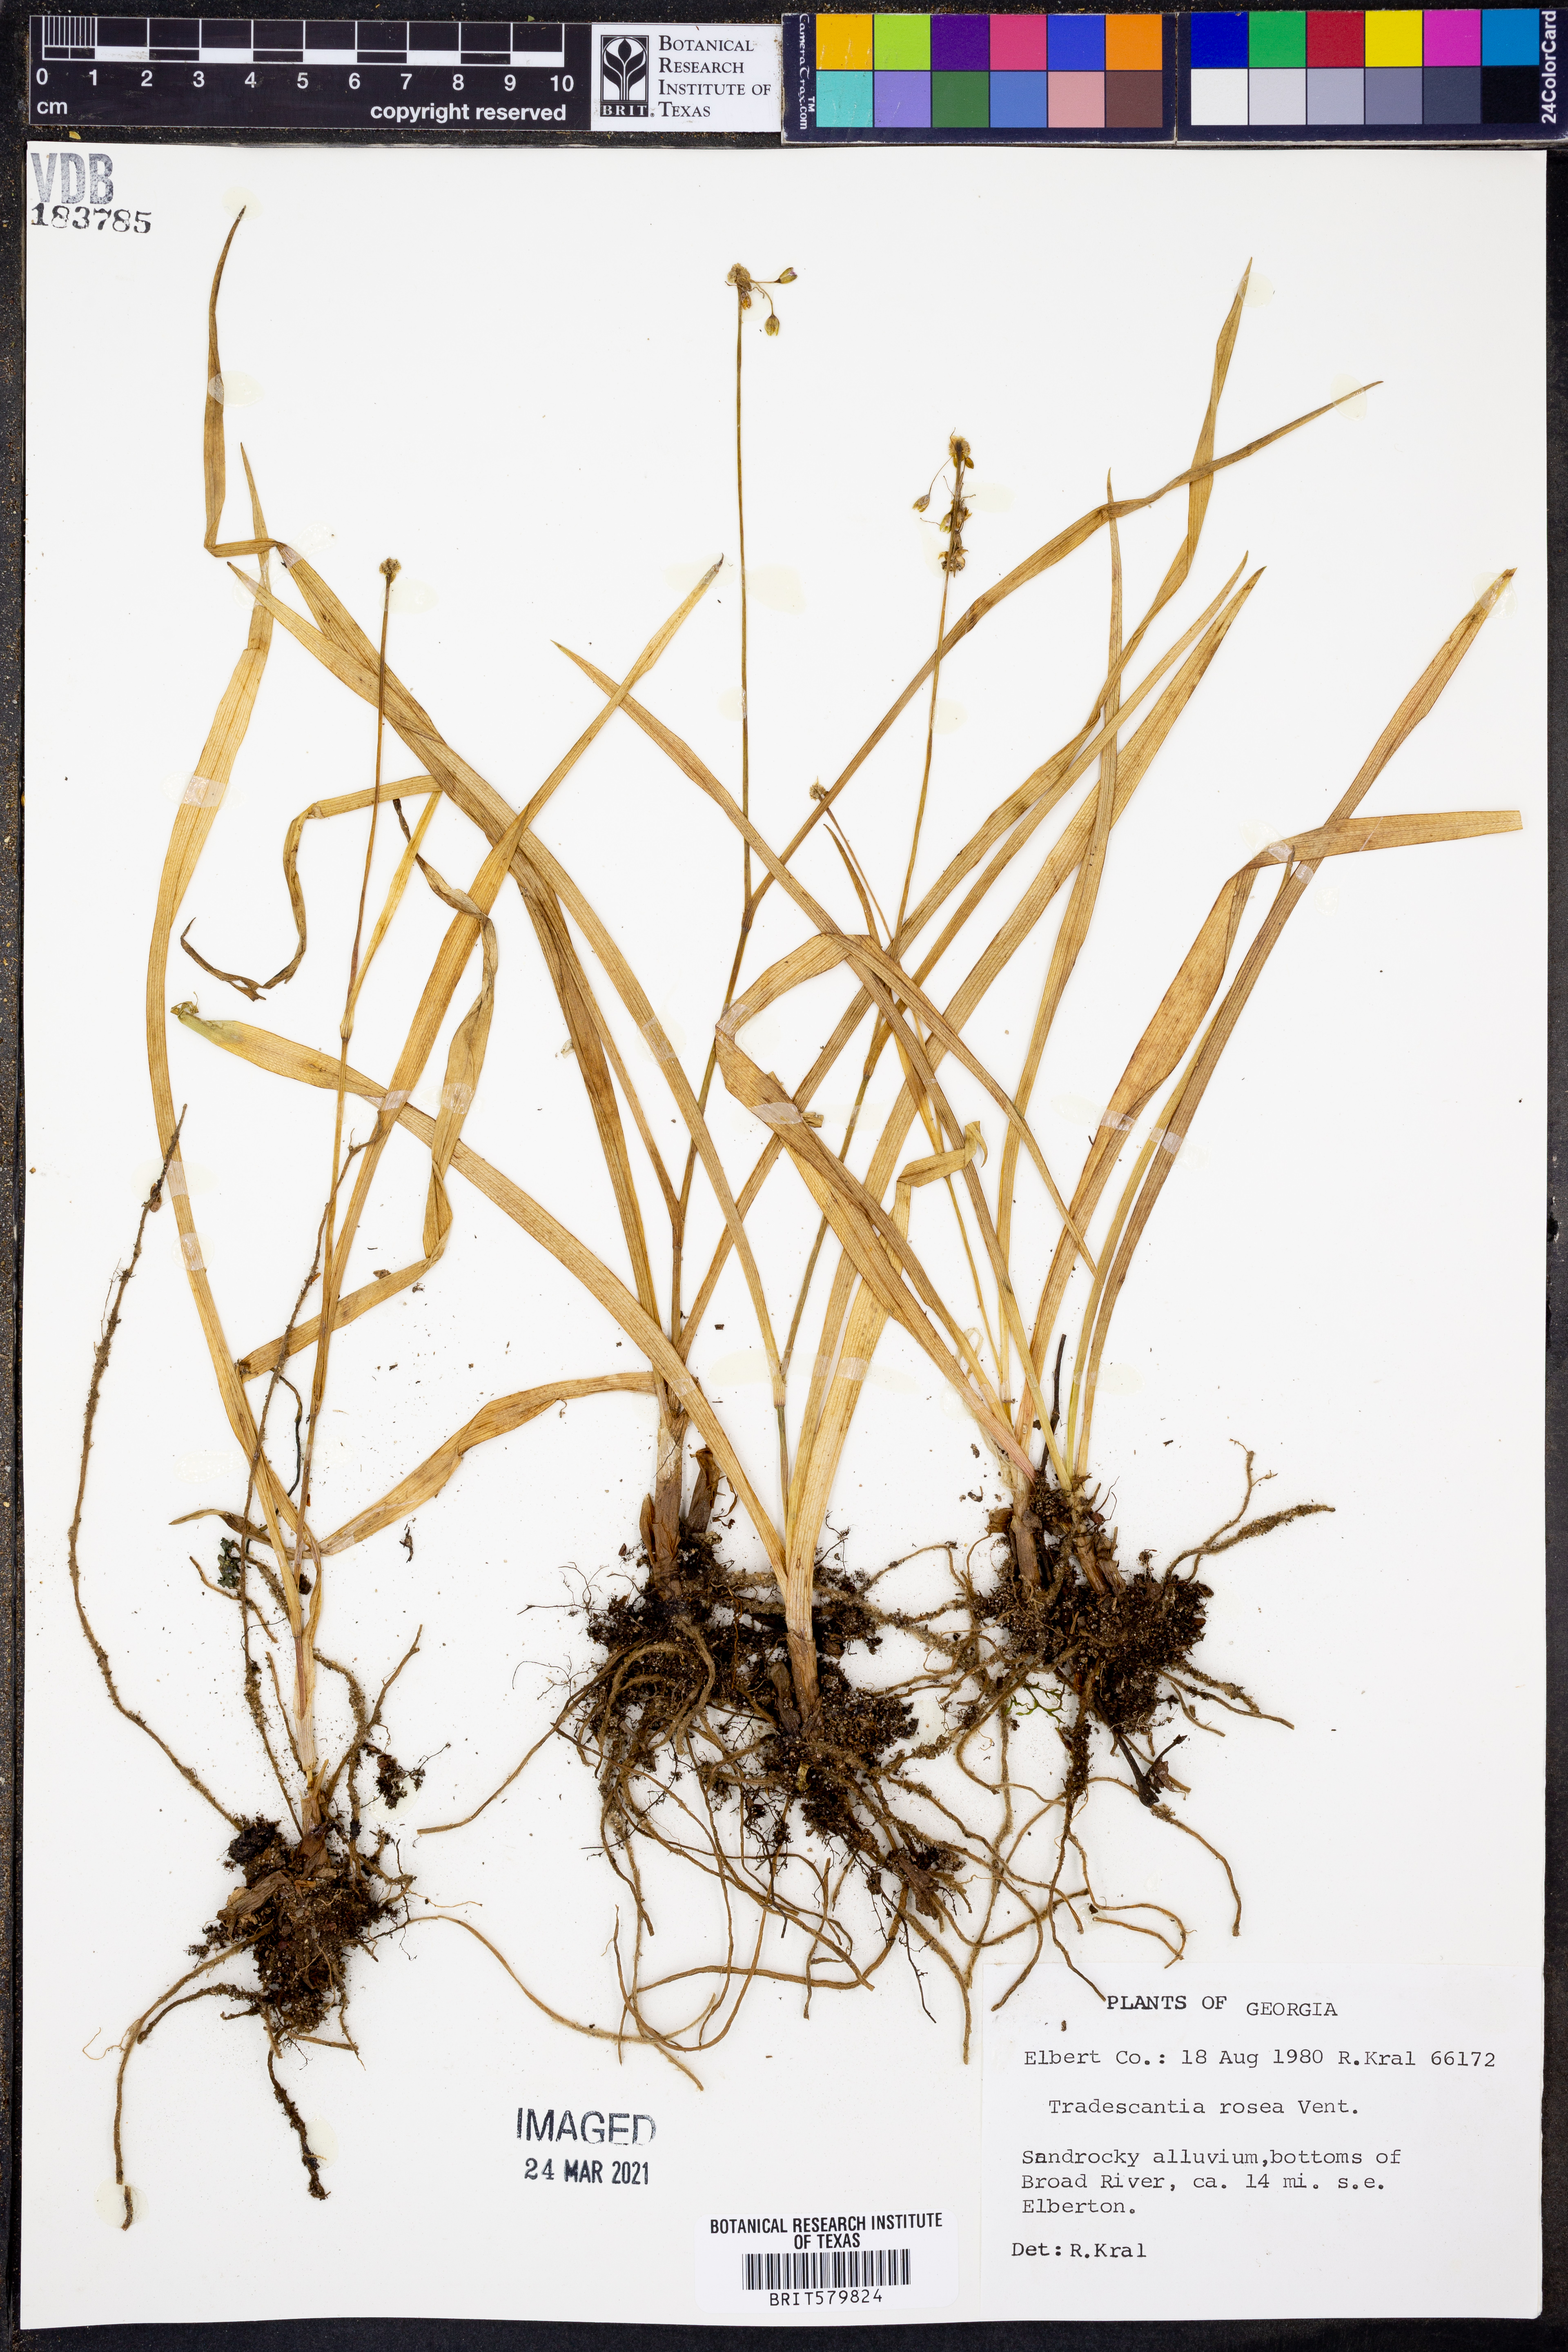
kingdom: Plantae
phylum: Tracheophyta
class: Liliopsida
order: Commelinales
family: Commelinaceae
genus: Callisia
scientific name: Callisia rosea
